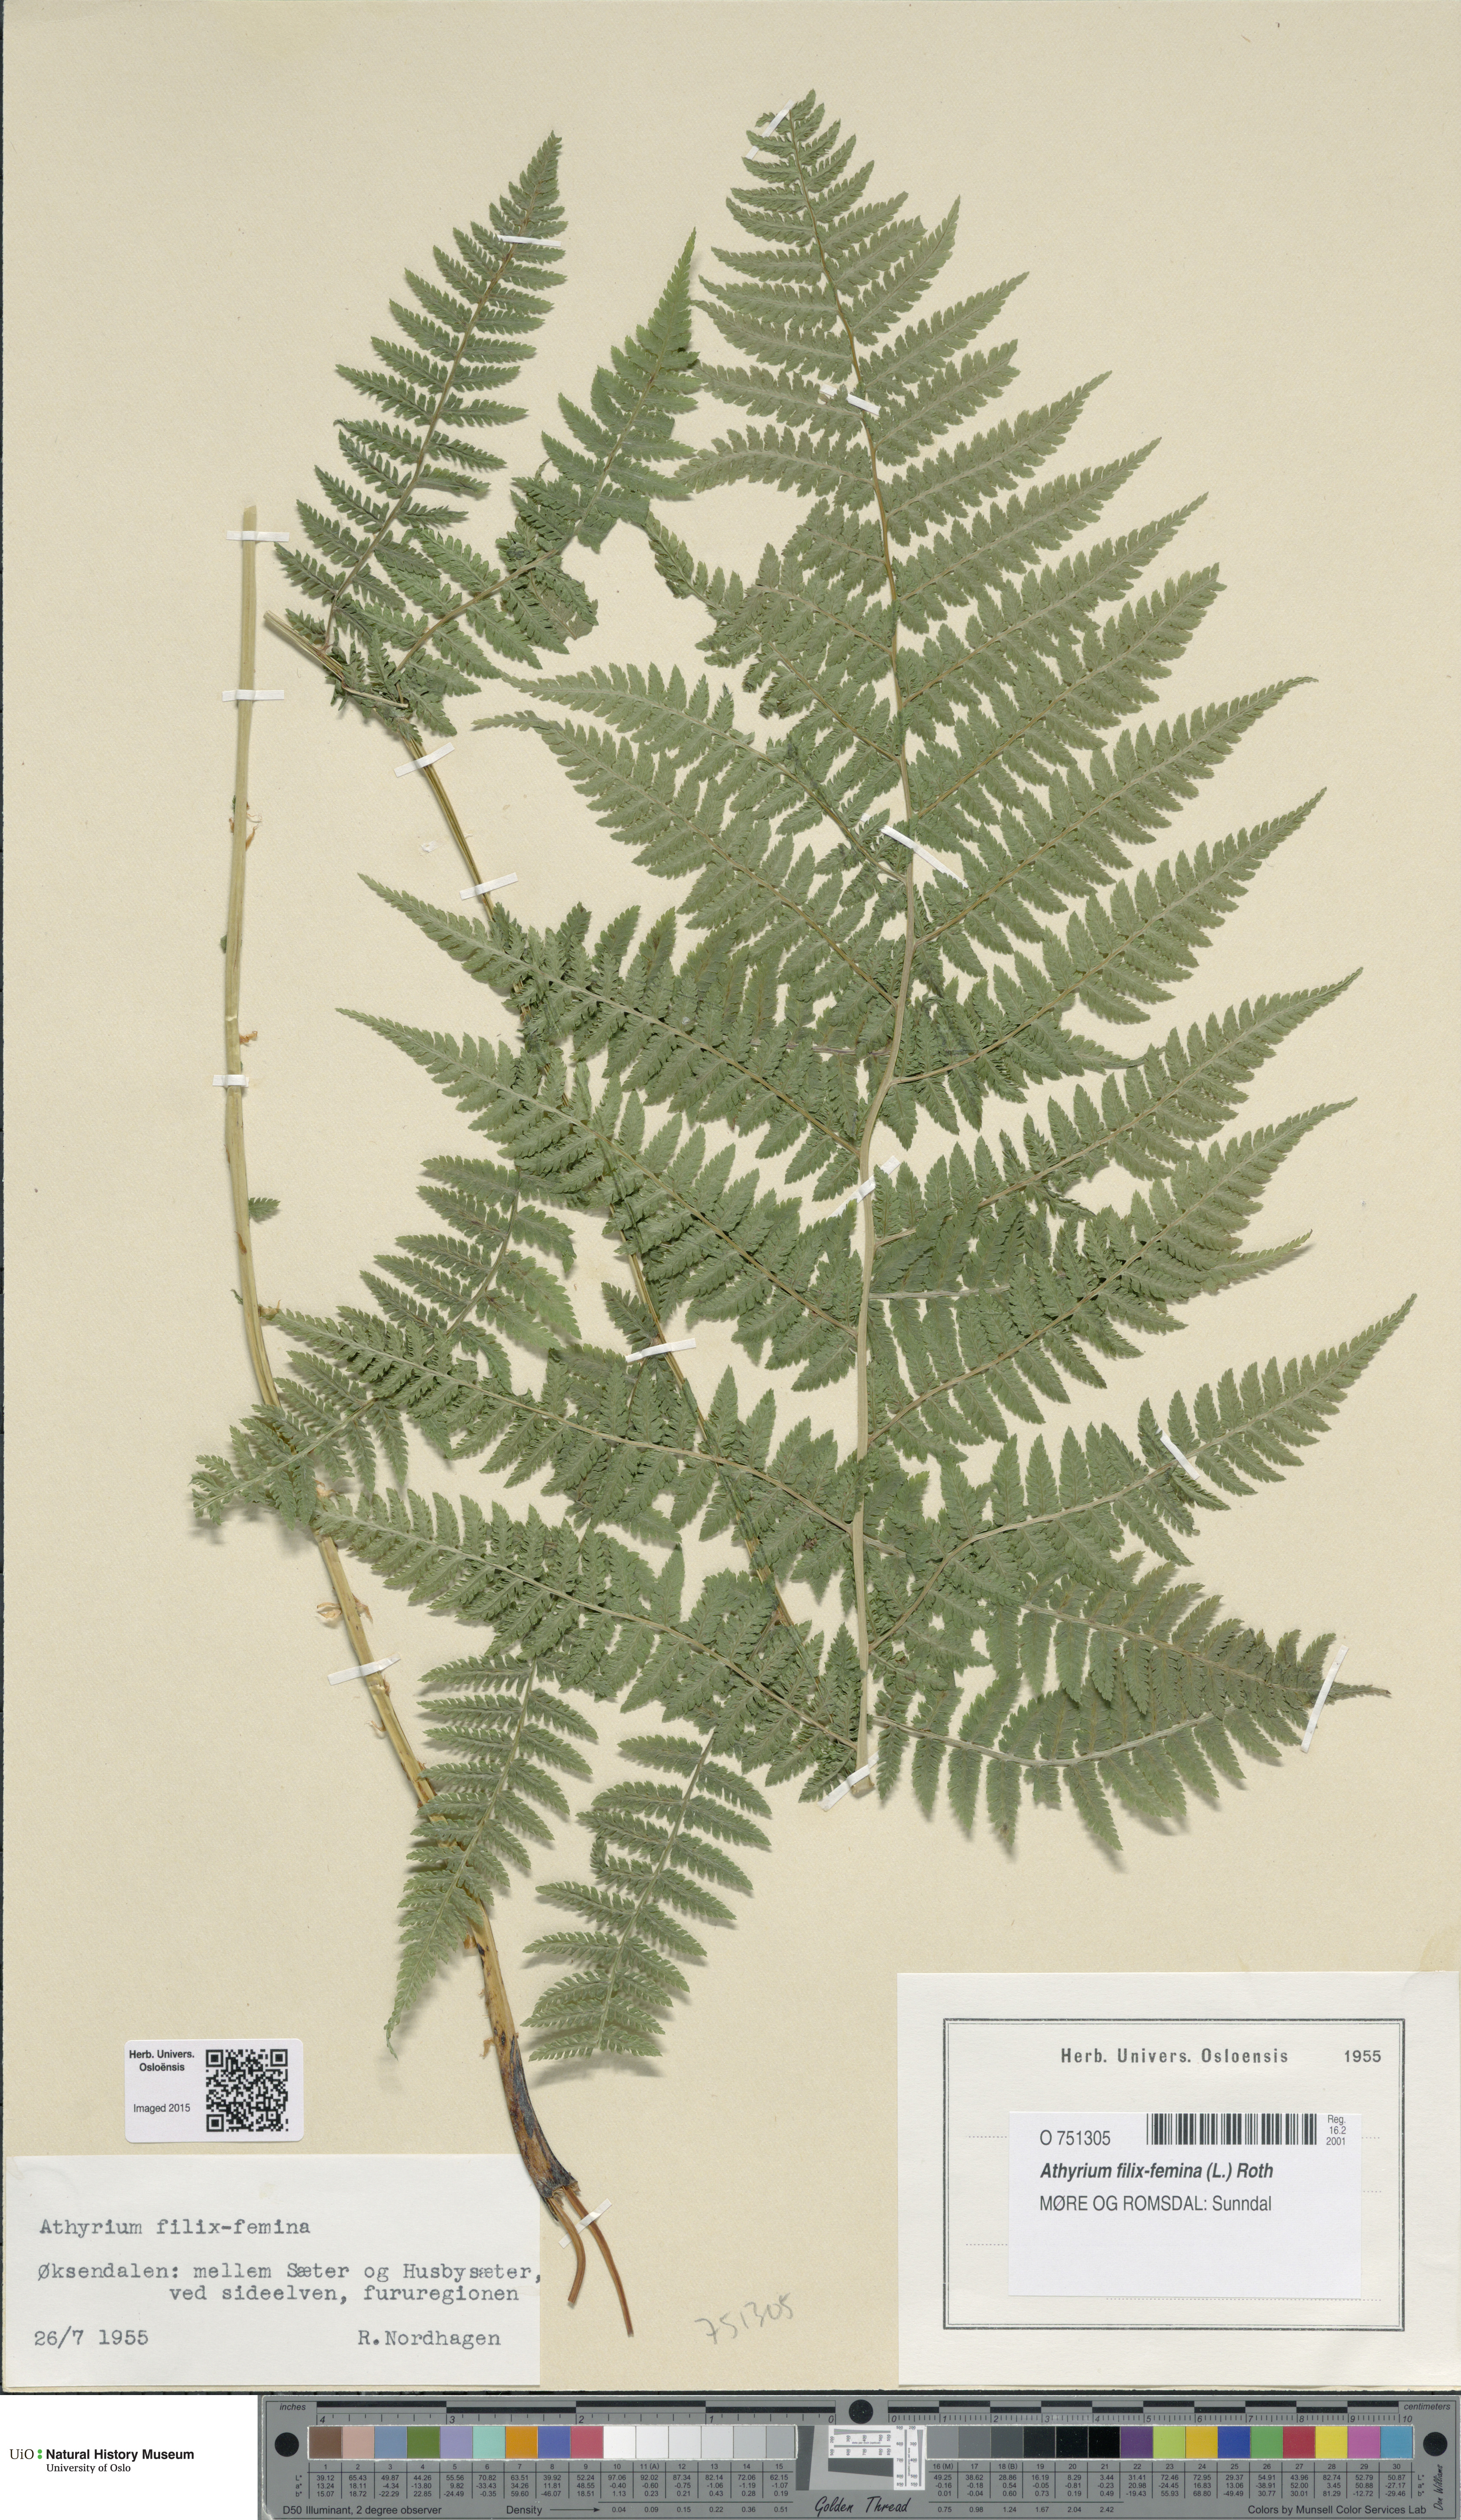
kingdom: Plantae
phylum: Tracheophyta
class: Polypodiopsida
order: Polypodiales
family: Athyriaceae
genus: Athyrium
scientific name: Athyrium filix-femina
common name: Lady fern
